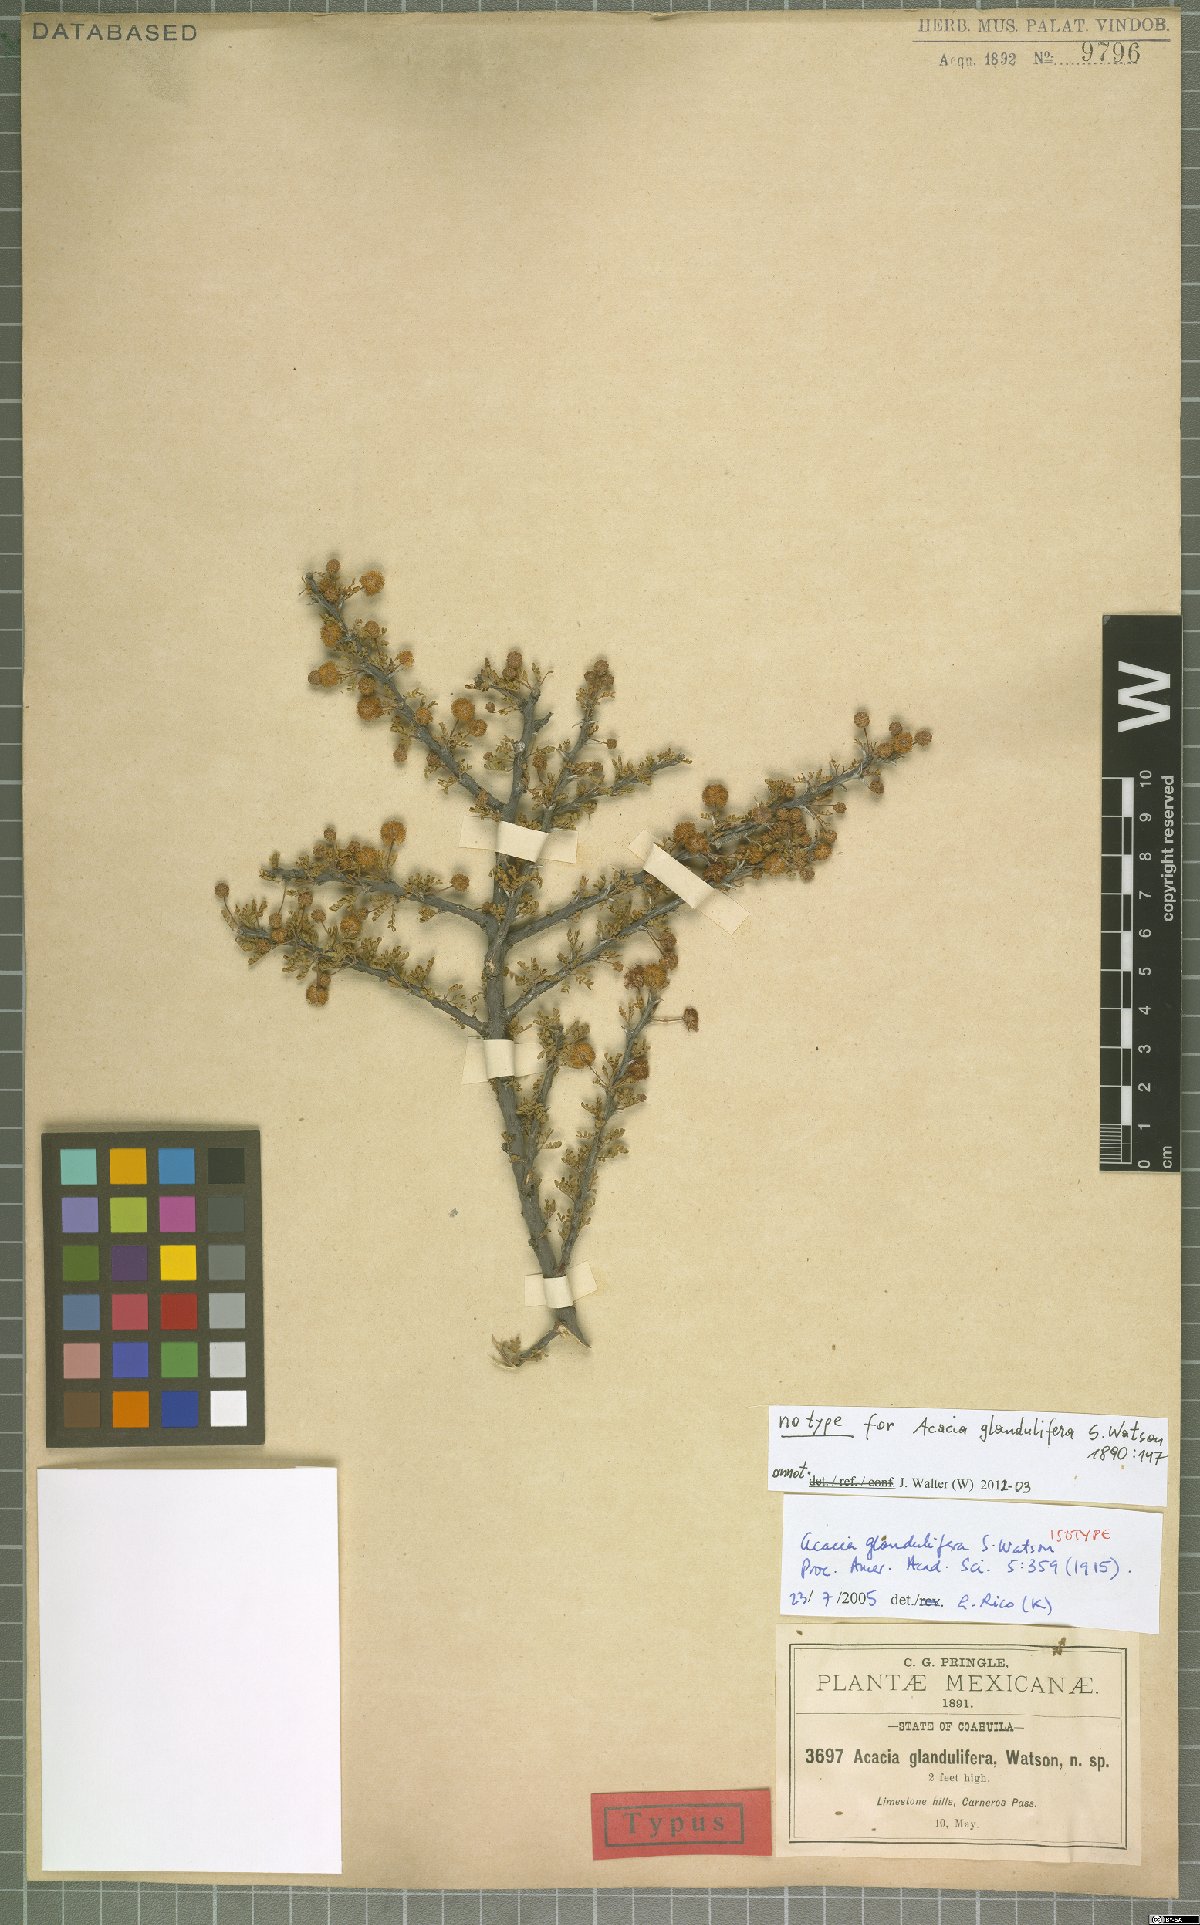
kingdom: Plantae
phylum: Tracheophyta
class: Magnoliopsida
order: Fabales
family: Fabaceae
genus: Vachellia
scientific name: Vachellia glandulifera
